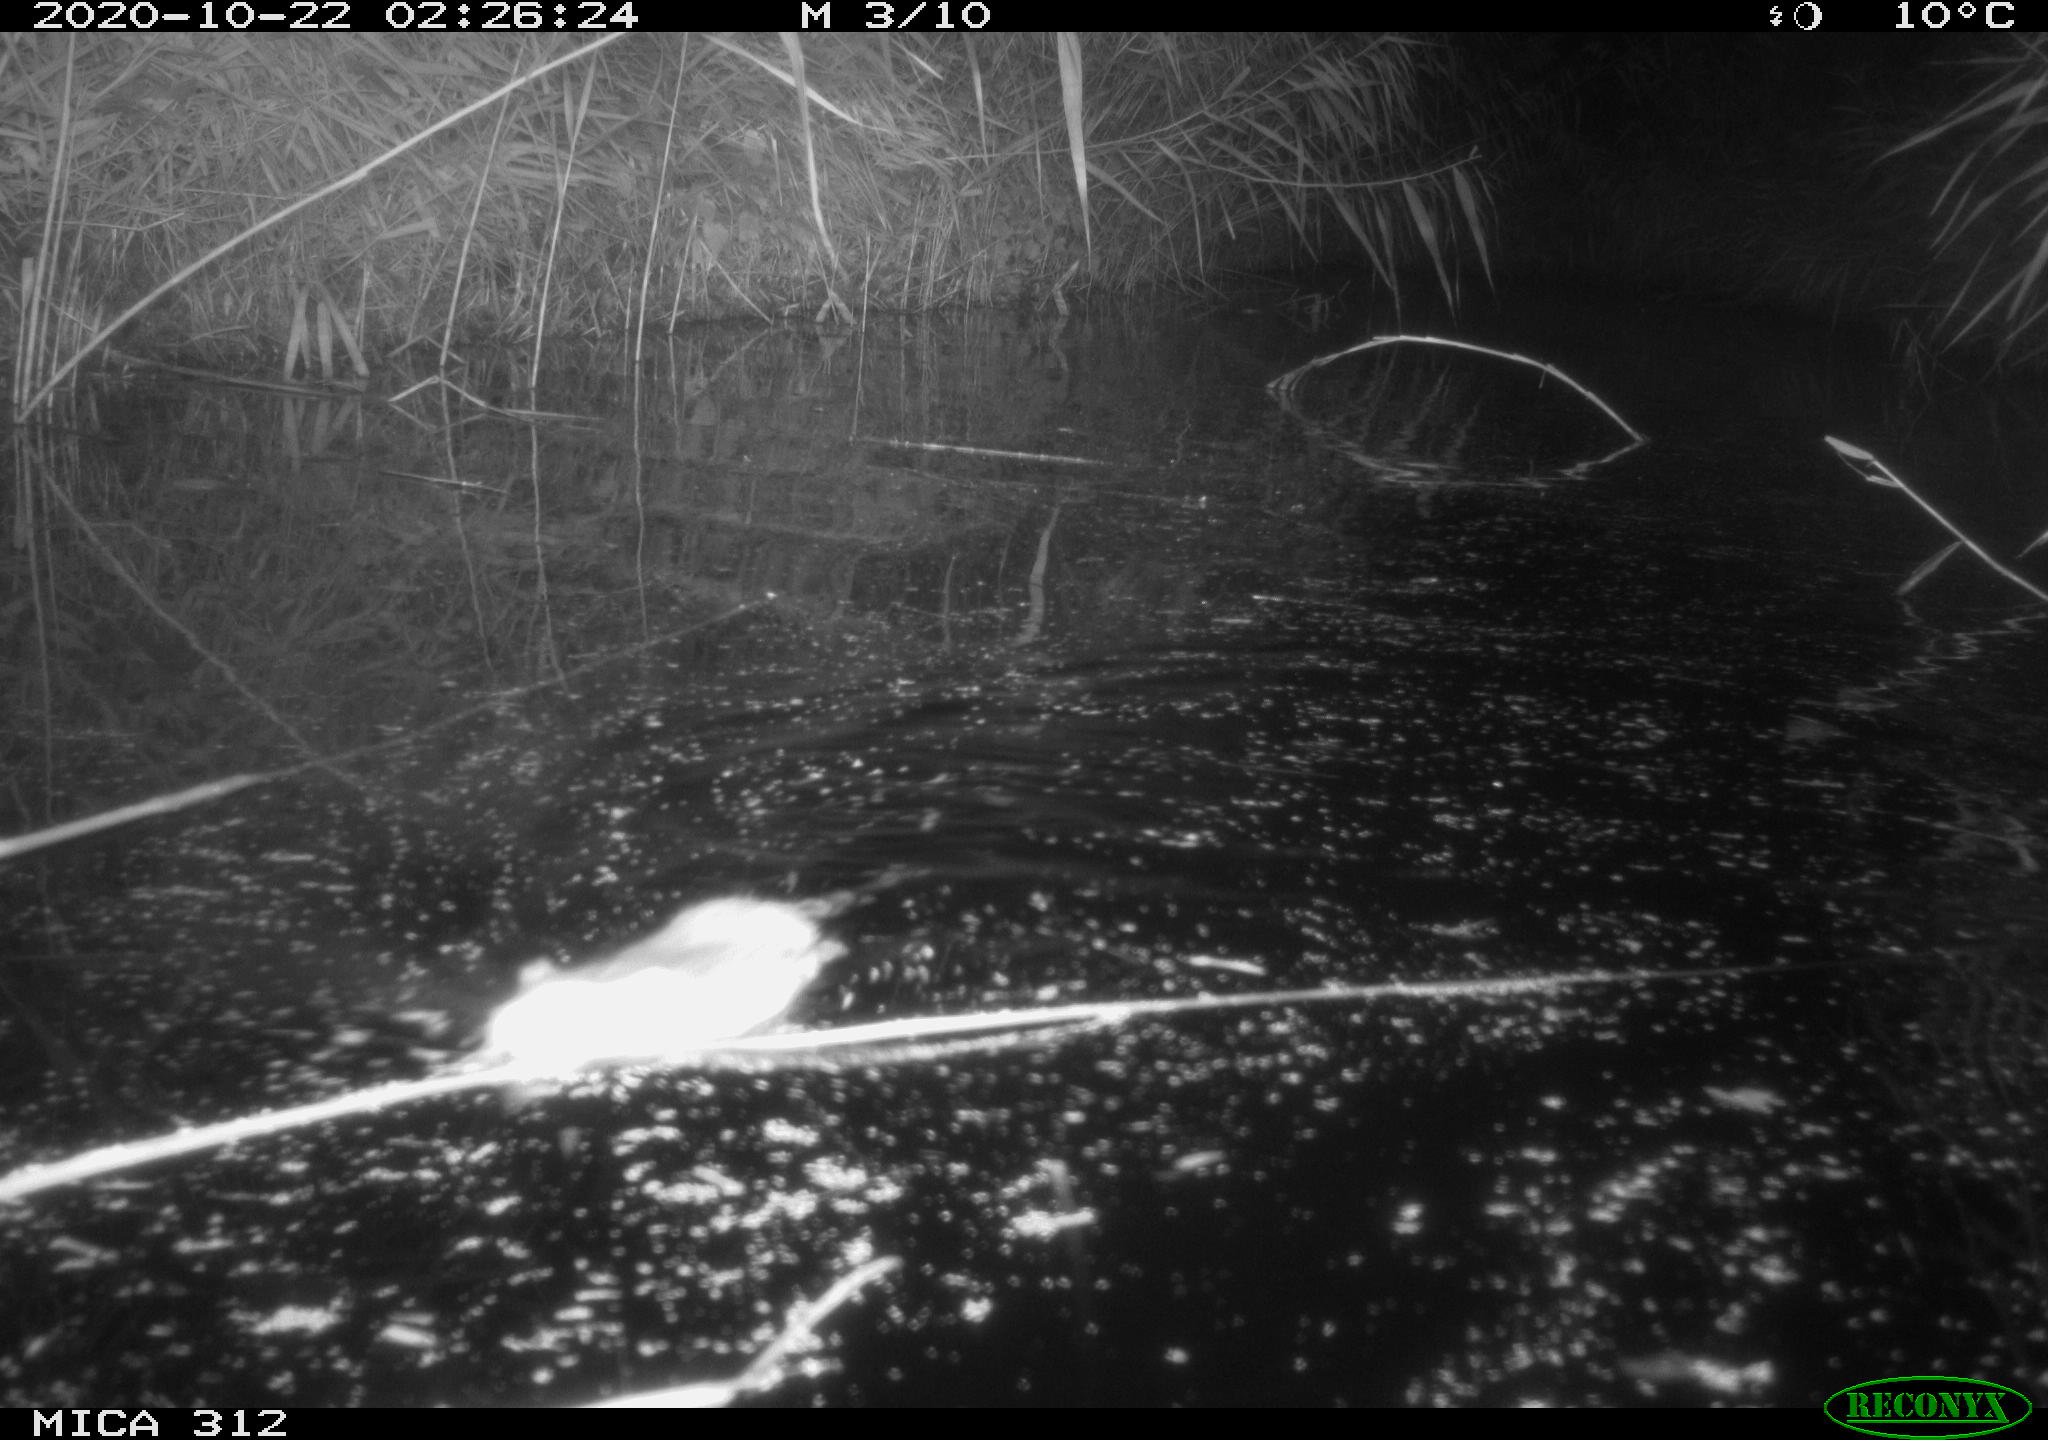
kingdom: Animalia
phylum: Chordata
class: Mammalia
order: Rodentia
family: Muridae
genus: Rattus
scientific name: Rattus norvegicus
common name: Brown rat
